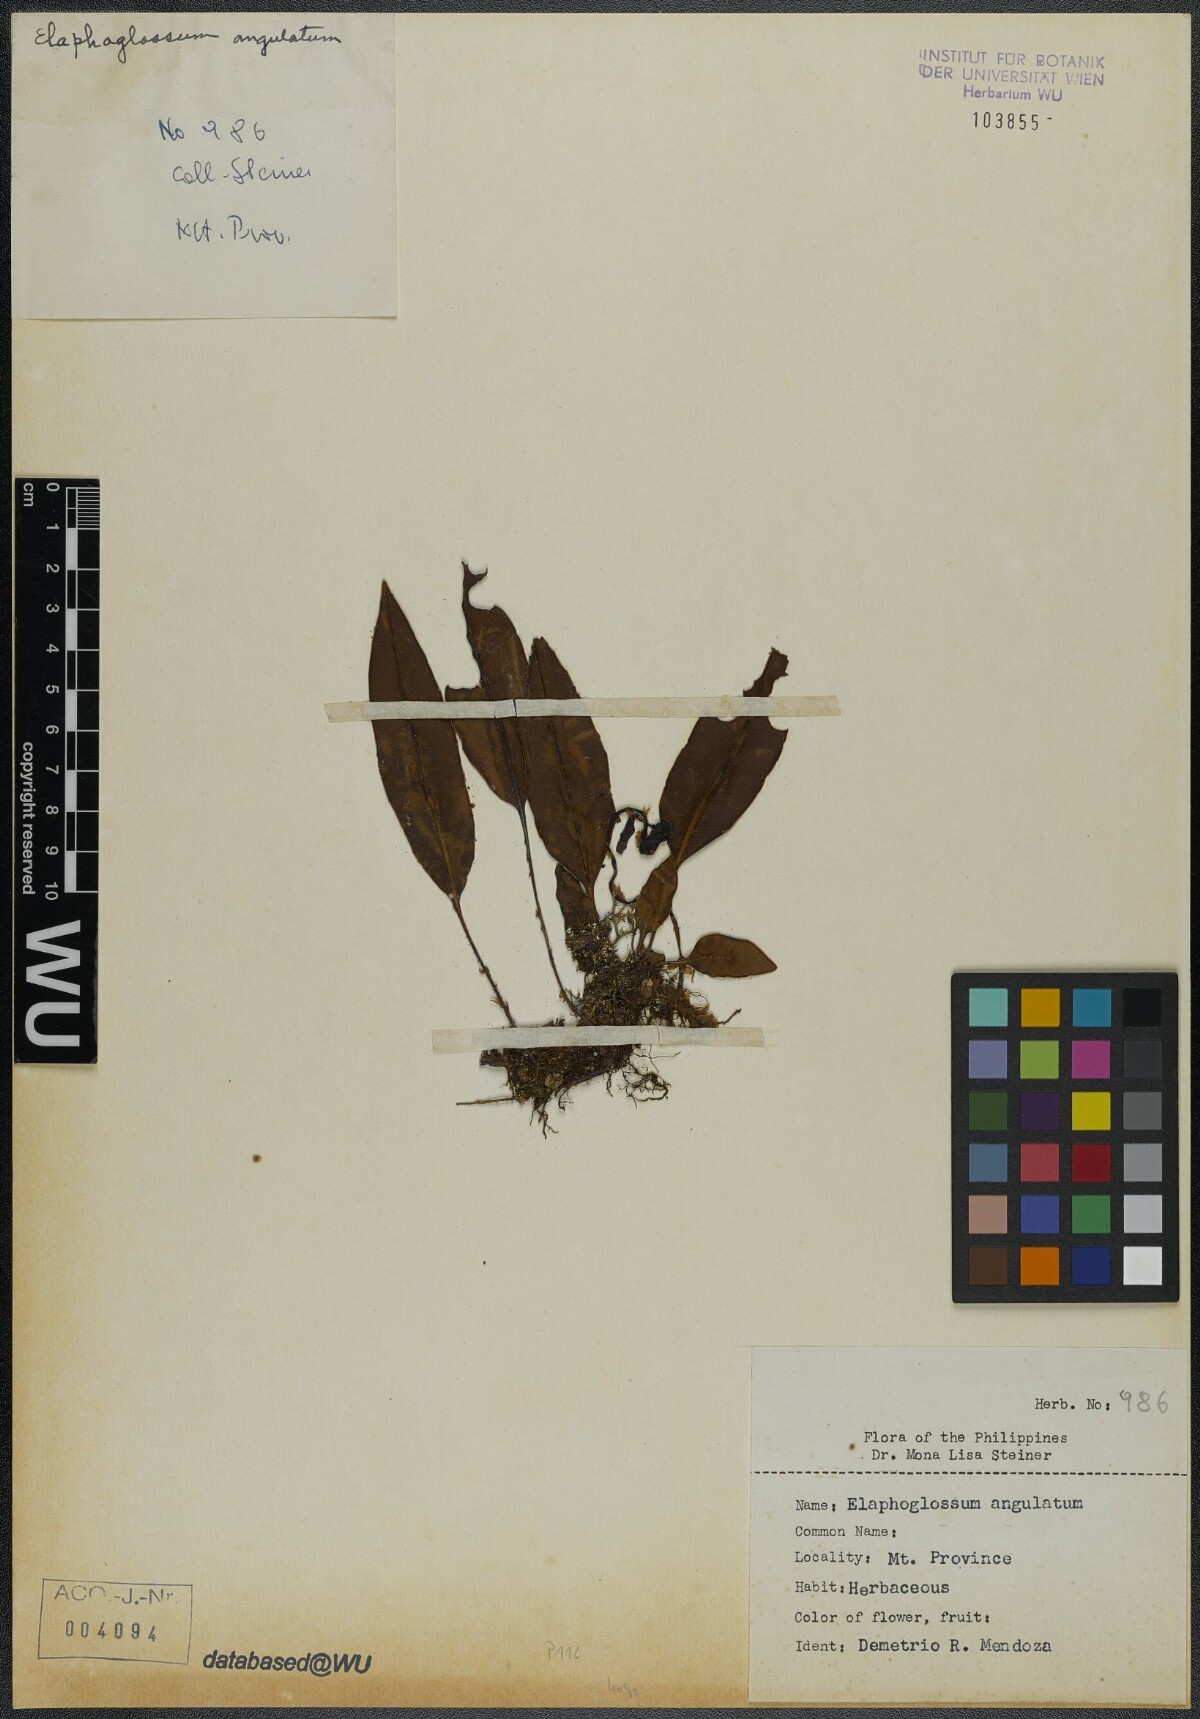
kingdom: Plantae
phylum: Tracheophyta
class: Polypodiopsida
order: Polypodiales
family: Dryopteridaceae
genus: Elaphoglossum
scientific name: Elaphoglossum angulatum
